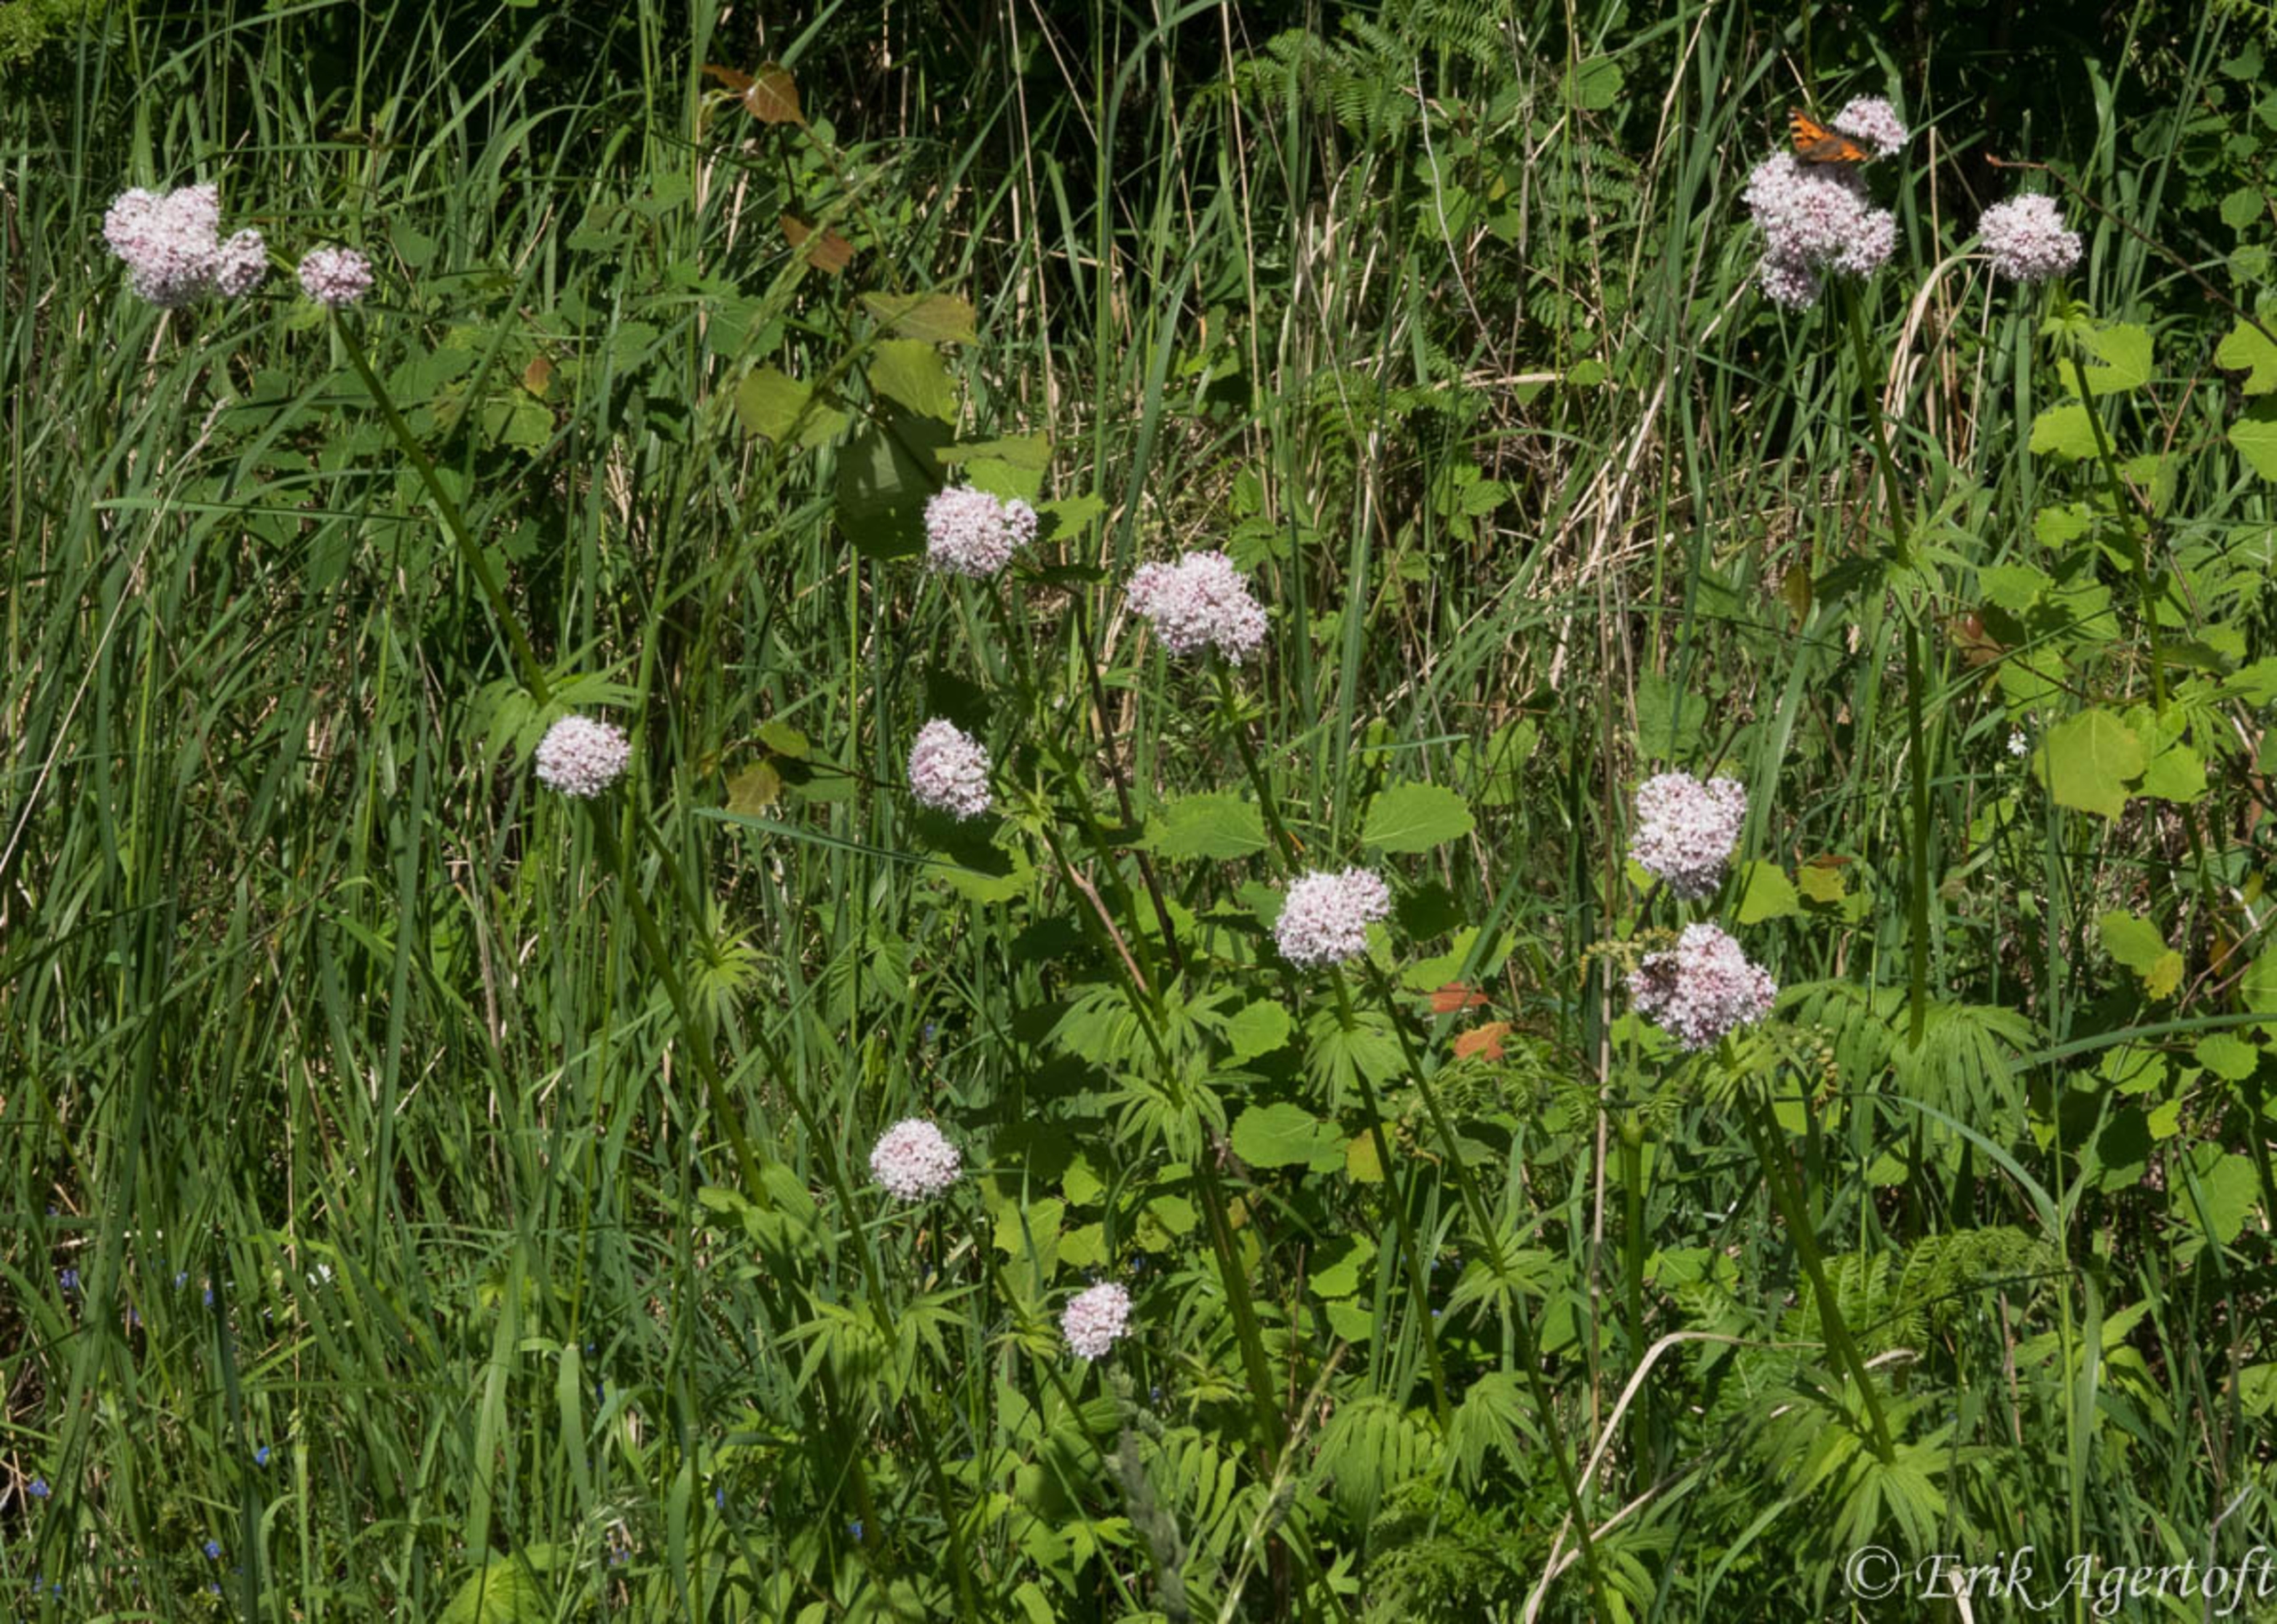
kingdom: Plantae
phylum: Tracheophyta
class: Magnoliopsida
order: Dipsacales
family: Caprifoliaceae
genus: Valeriana
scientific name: Valeriana officinalis
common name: Læge-baldrian
